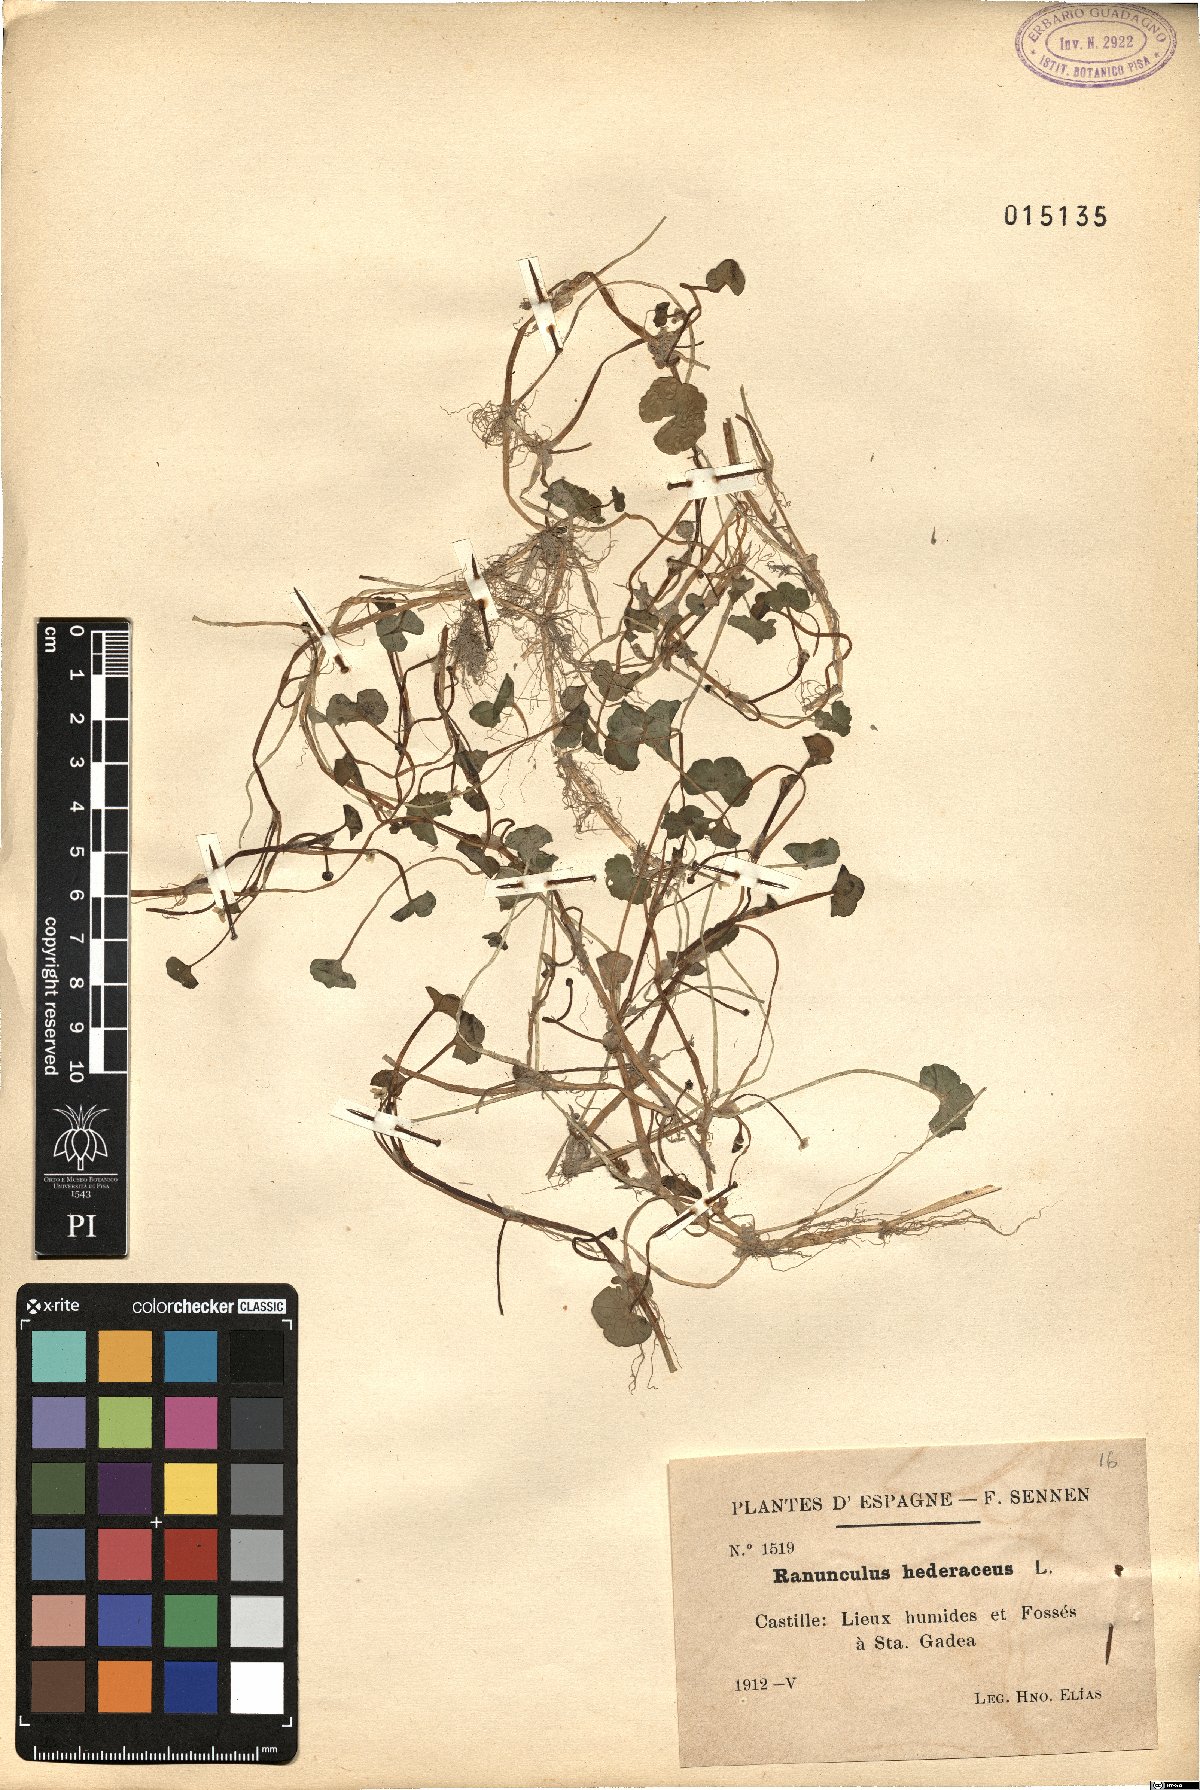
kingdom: Plantae
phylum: Tracheophyta
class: Magnoliopsida
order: Ranunculales
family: Ranunculaceae
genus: Ranunculus
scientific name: Ranunculus hederaceus
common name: Ivy-leaved crowfoot
